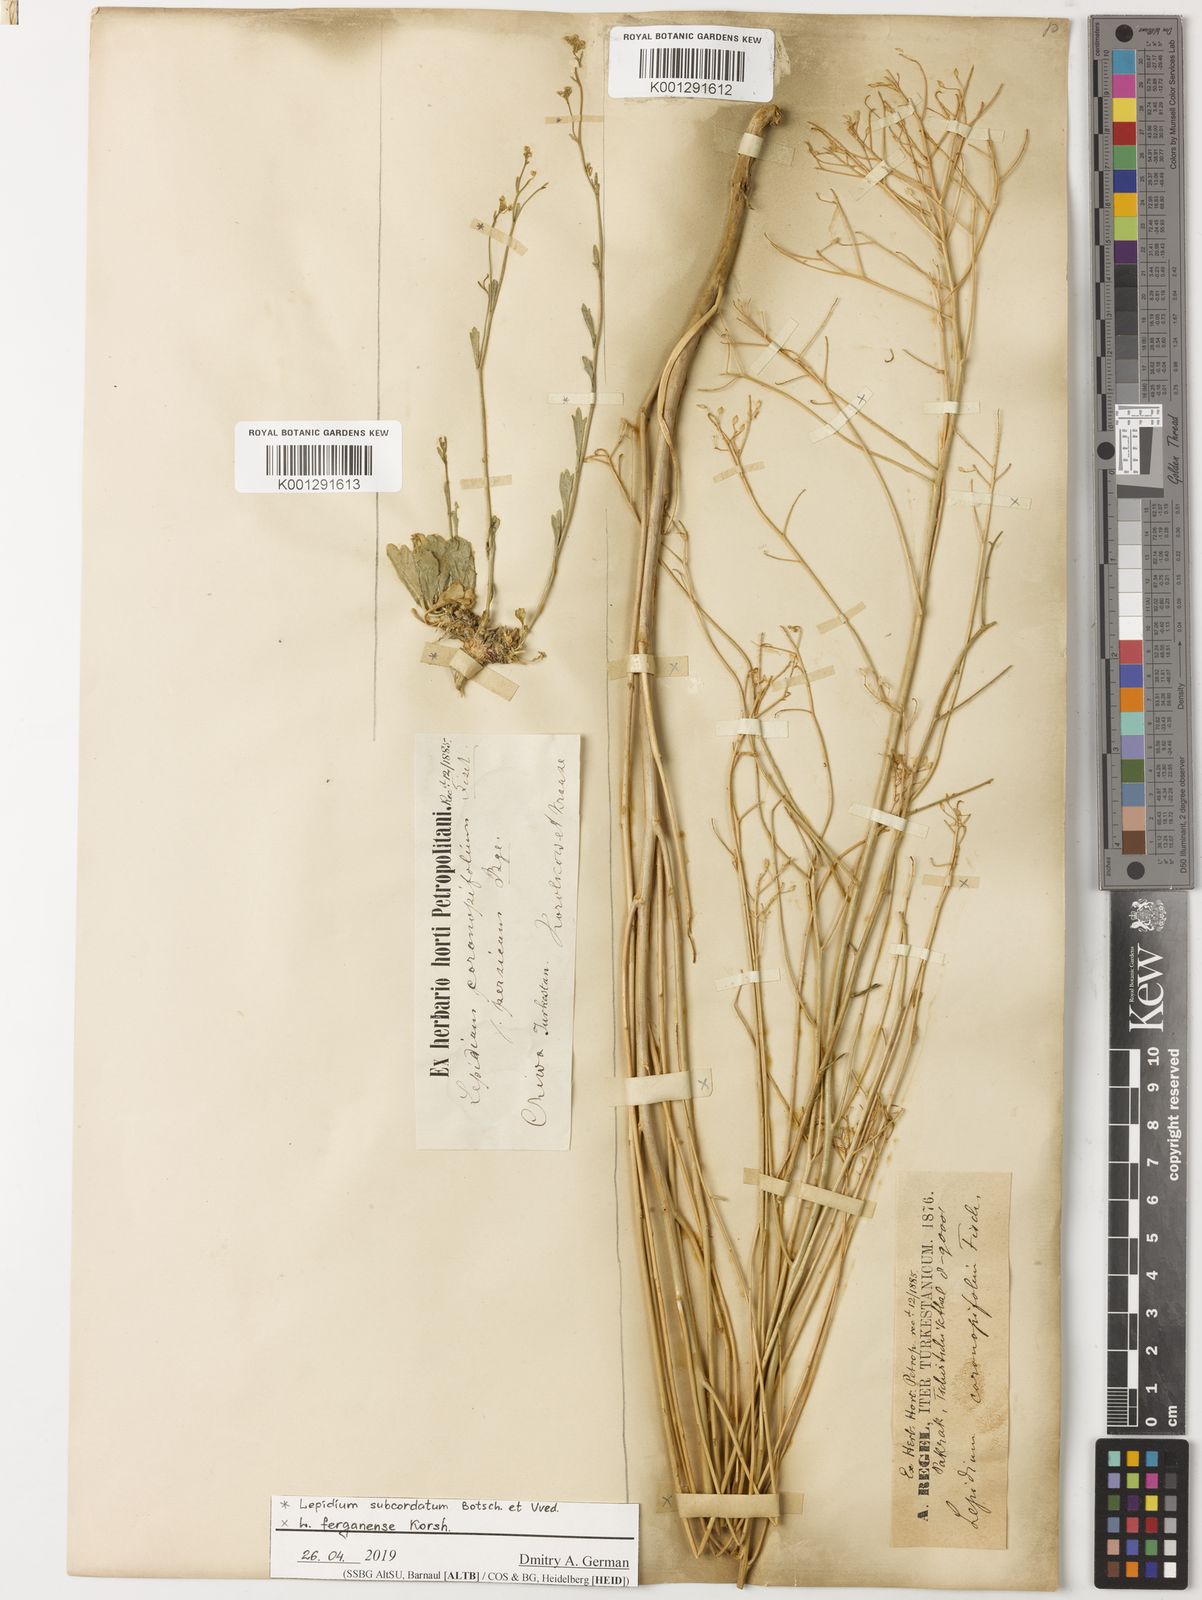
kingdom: Plantae
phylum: Tracheophyta
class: Magnoliopsida
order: Brassicales
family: Brassicaceae
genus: Lepidium
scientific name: Lepidium ferganense
